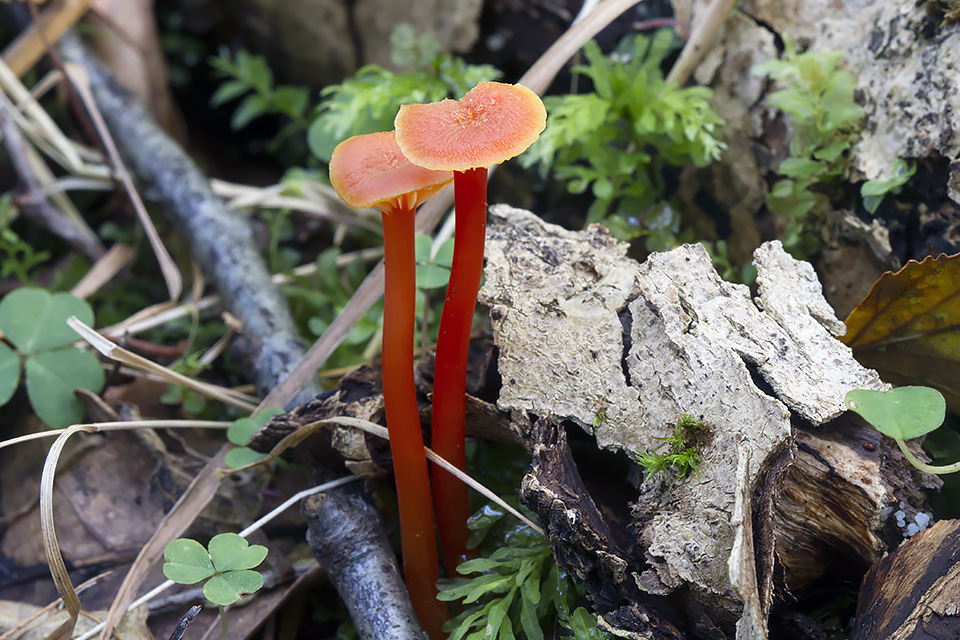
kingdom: Fungi
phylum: Basidiomycota
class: Agaricomycetes
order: Agaricales
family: Hygrophoraceae
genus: Hygrocybe
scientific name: Hygrocybe cantharellus
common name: kantarel-vokshat
